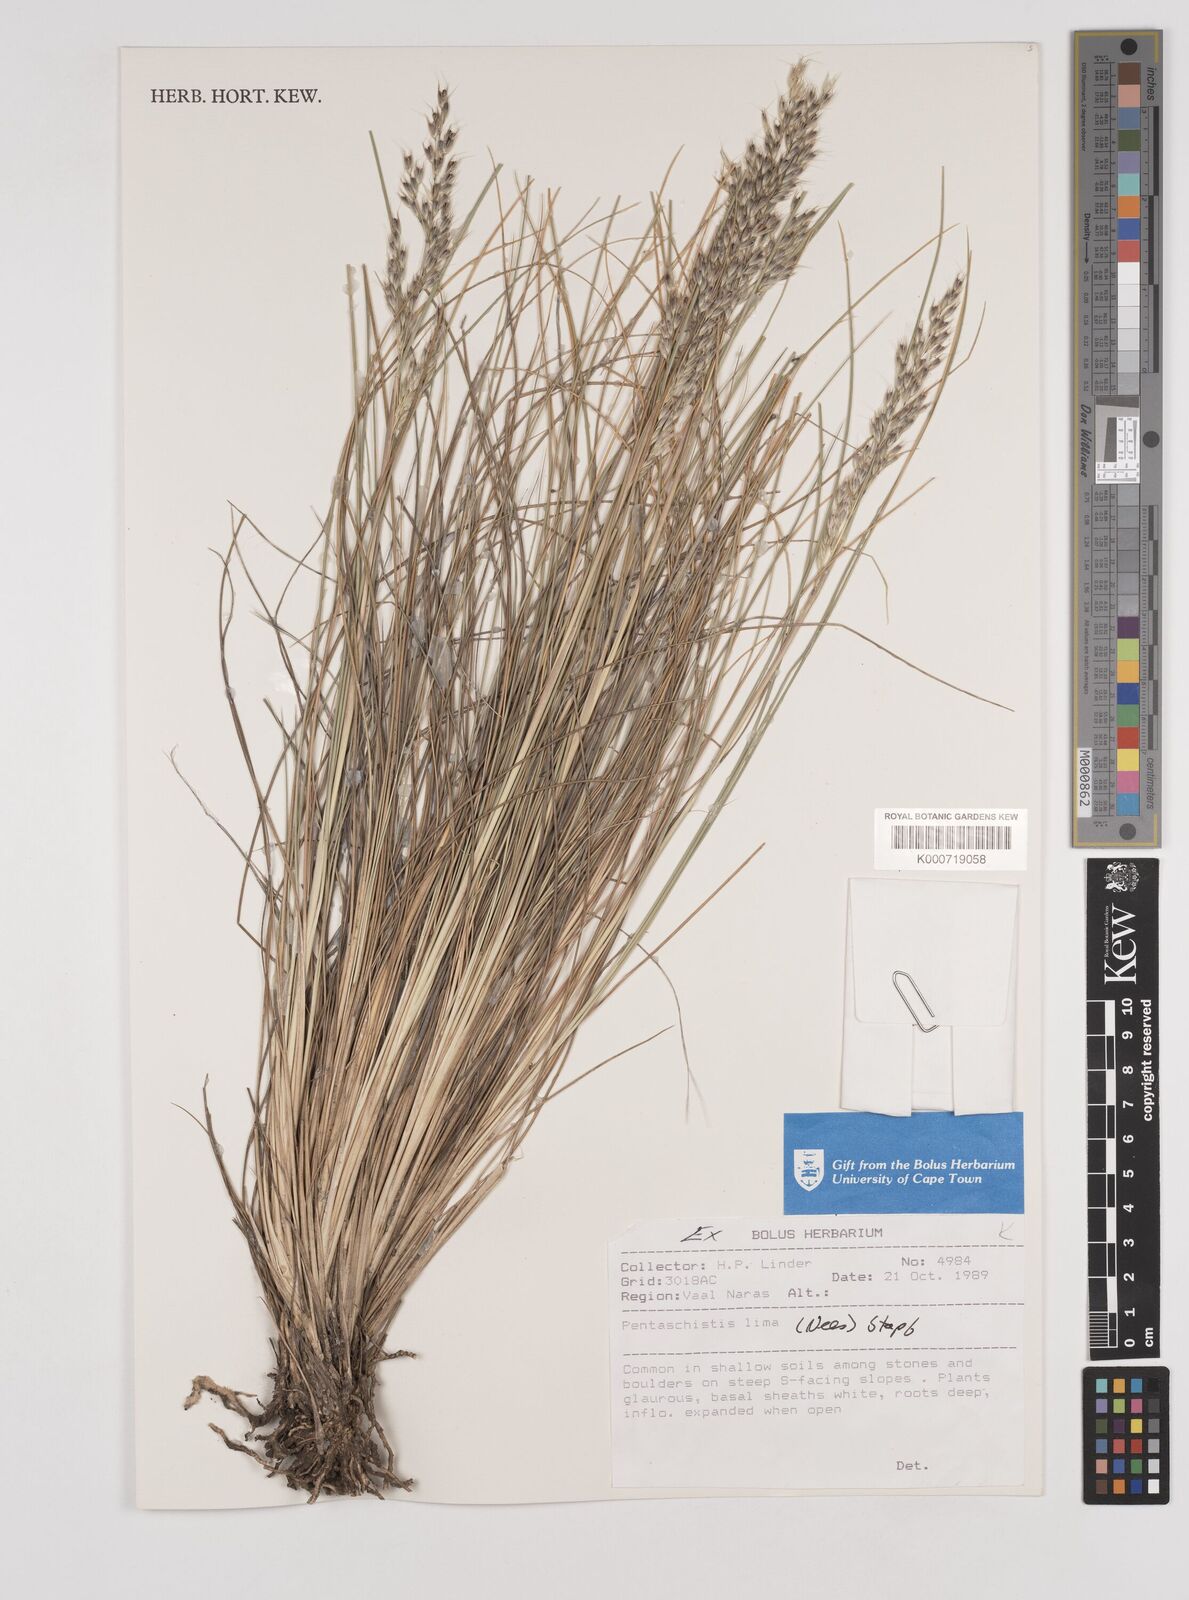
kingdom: Plantae
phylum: Tracheophyta
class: Liliopsida
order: Poales
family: Poaceae
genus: Pentaschistis
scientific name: Pentaschistis
